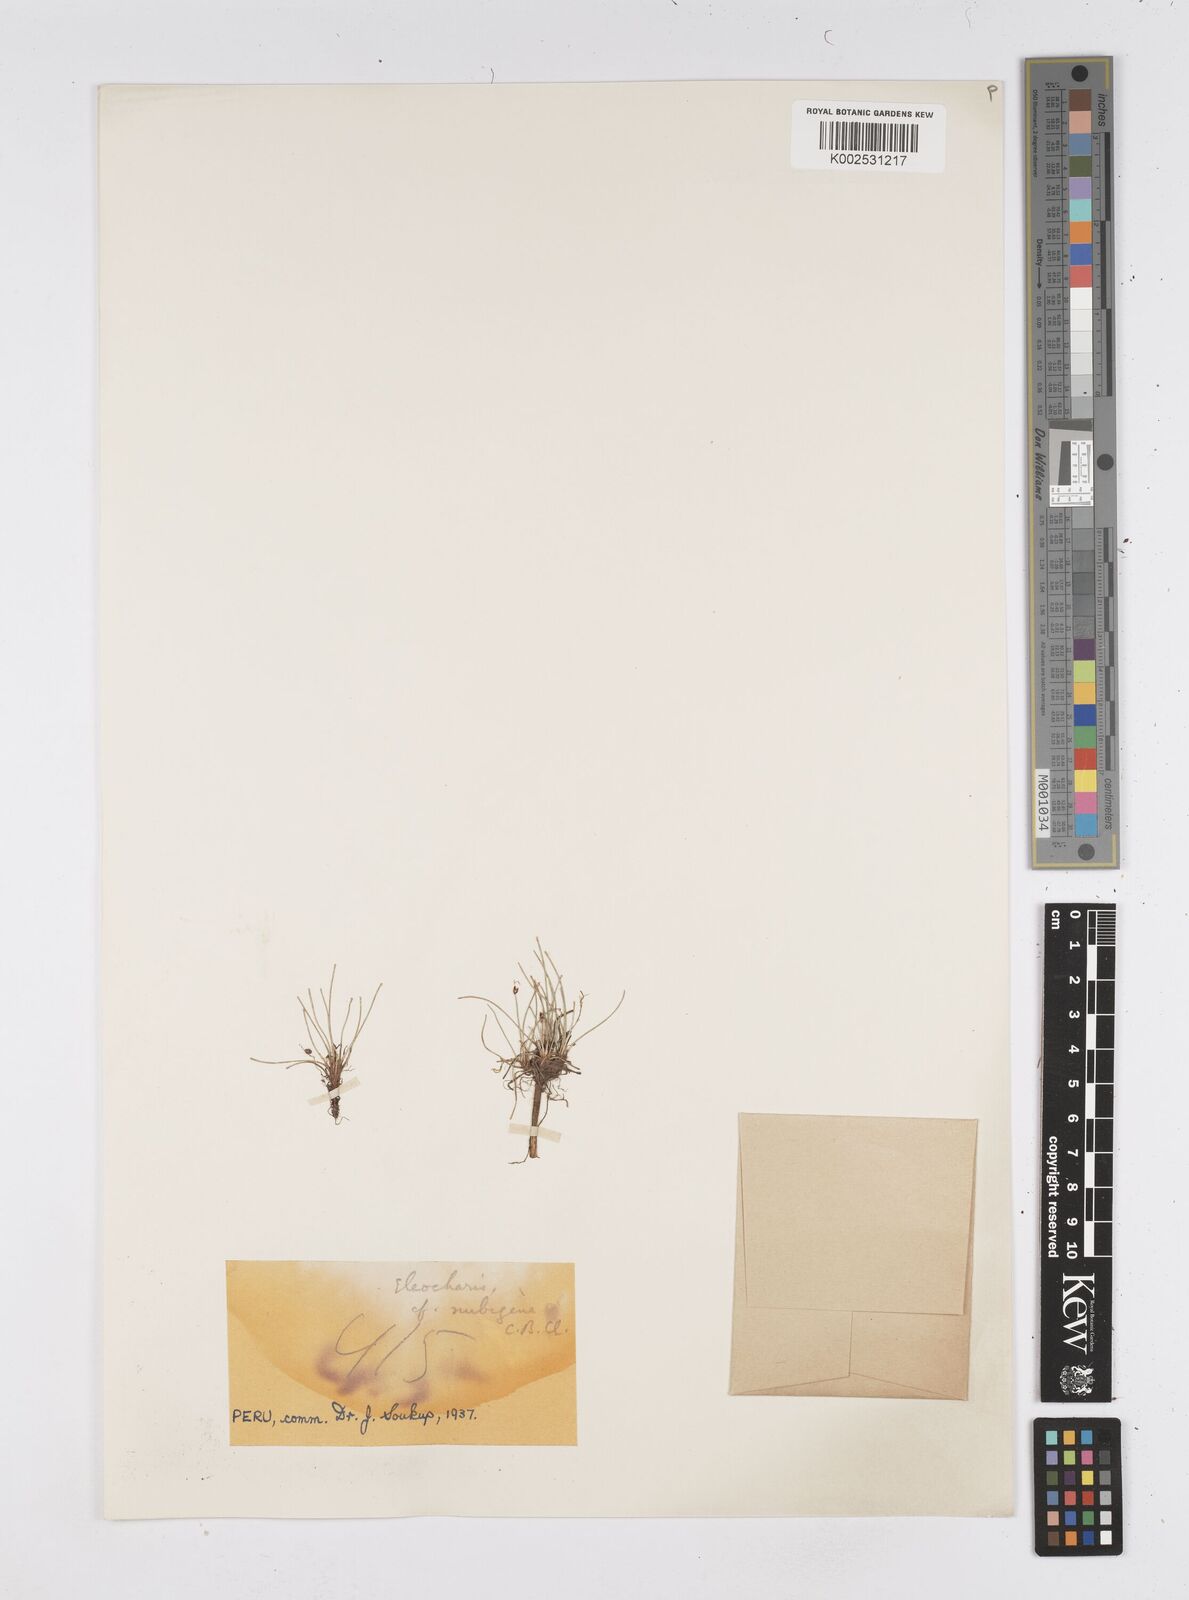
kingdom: Plantae
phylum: Tracheophyta
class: Liliopsida
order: Poales
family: Cyperaceae
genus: Eleocharis
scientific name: Eleocharis albibracteata
